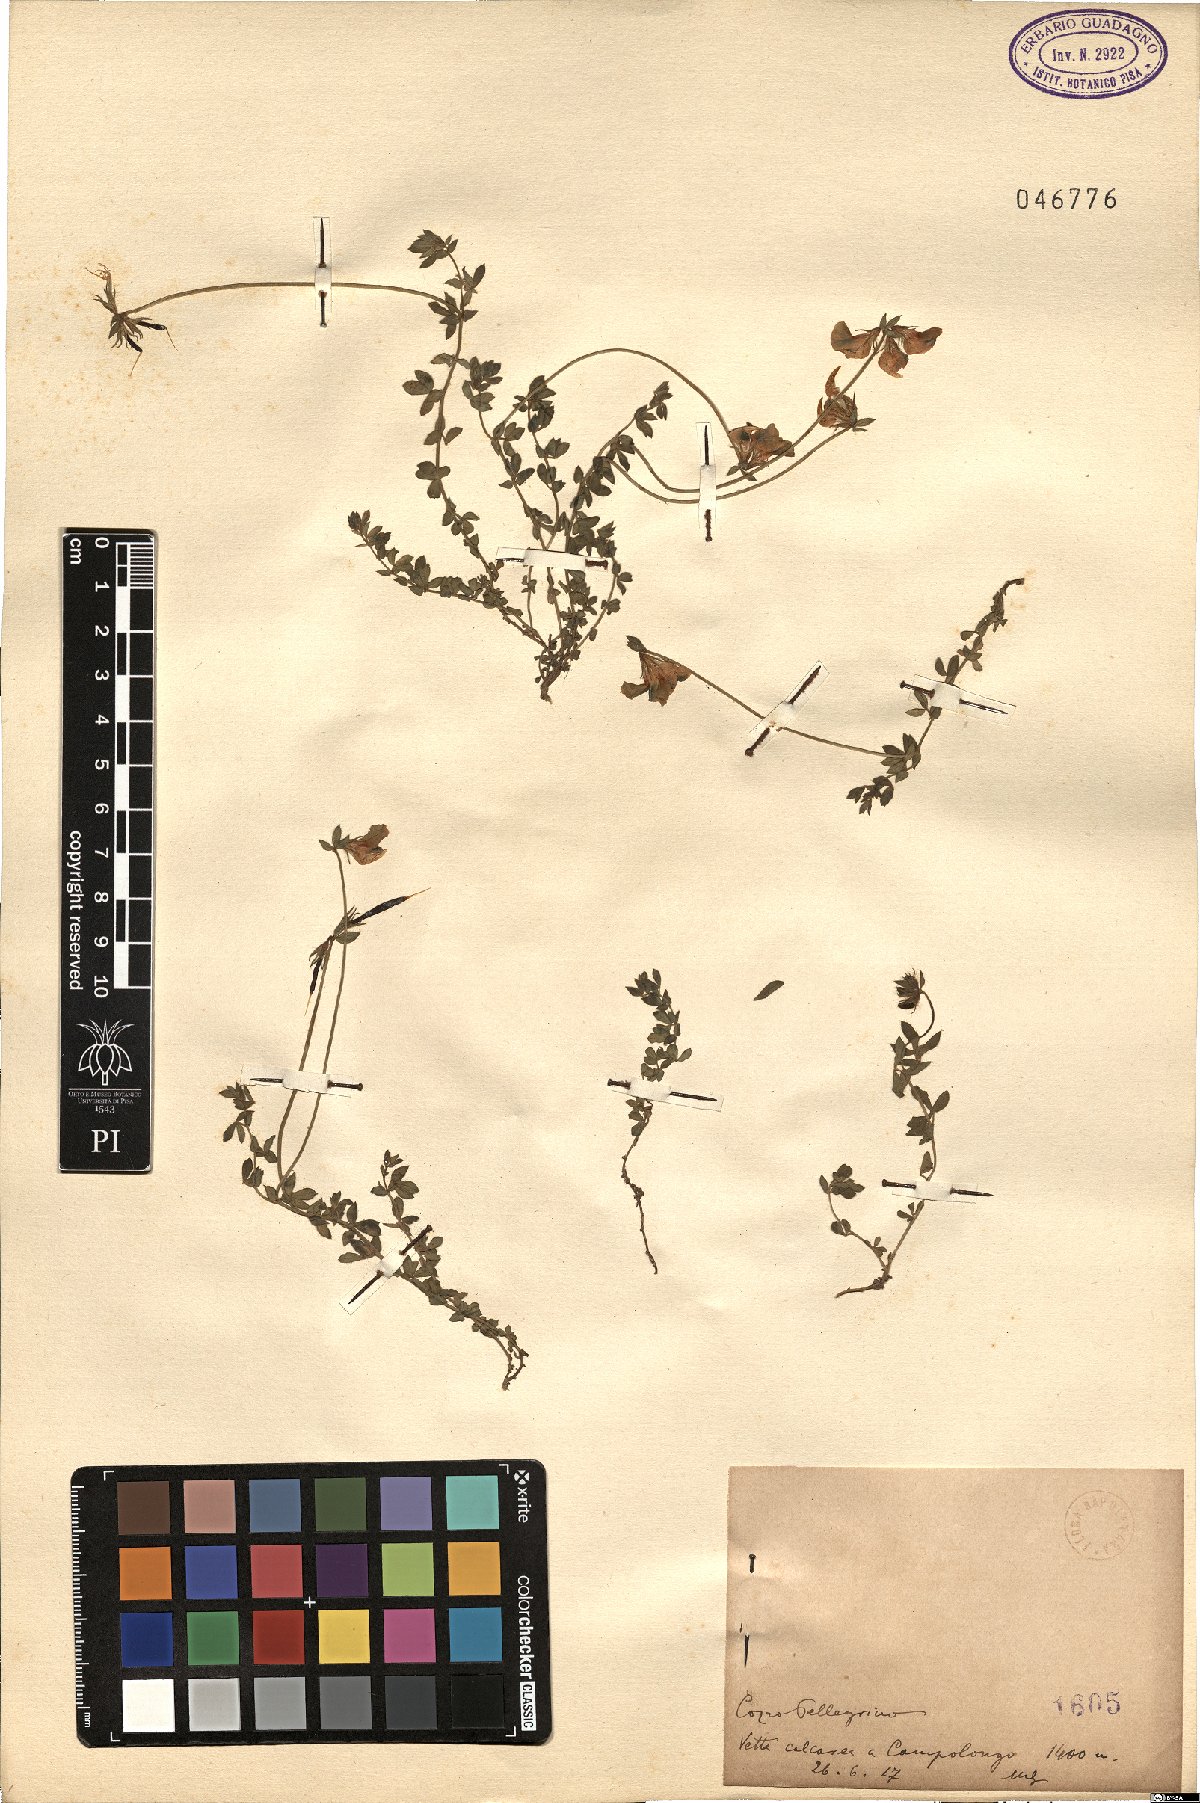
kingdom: Plantae
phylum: Tracheophyta
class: Magnoliopsida
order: Fabales
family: Fabaceae
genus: Lotus
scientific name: Lotus
